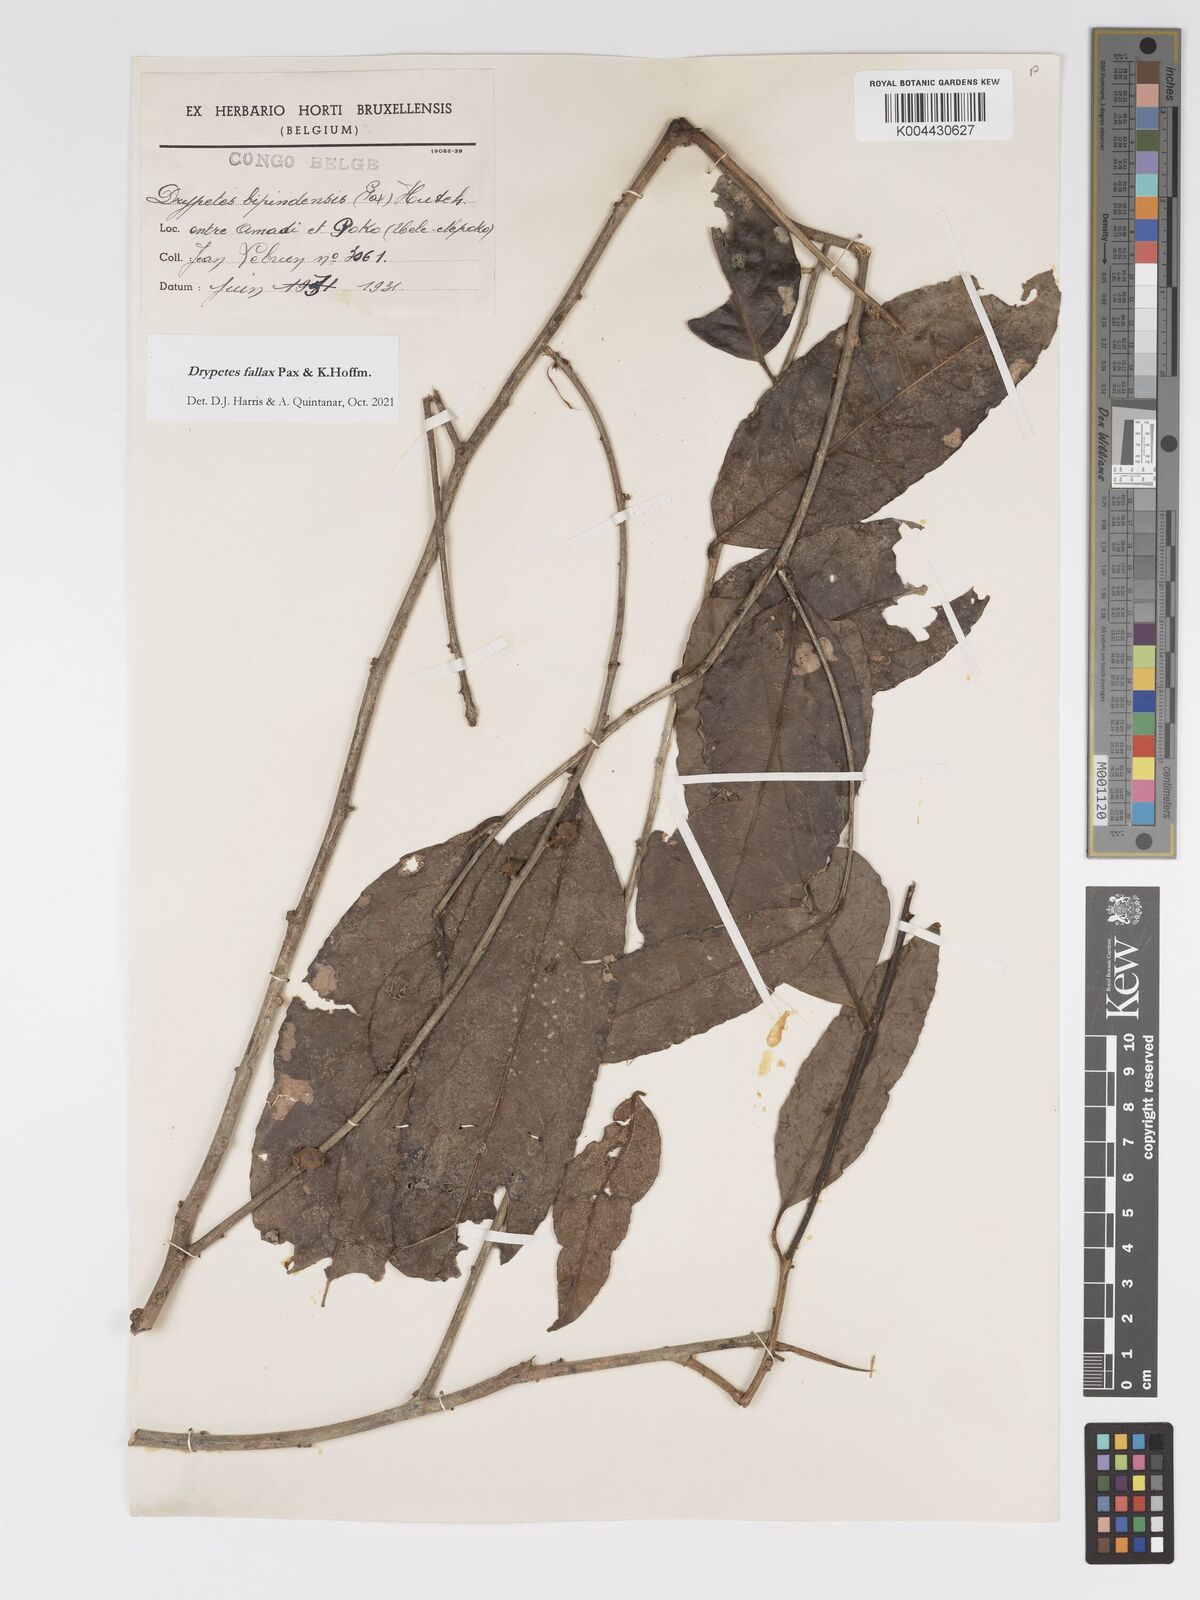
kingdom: Plantae
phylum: Tracheophyta
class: Magnoliopsida
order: Malpighiales
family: Putranjivaceae
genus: Drypetes
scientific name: Drypetes fallax
